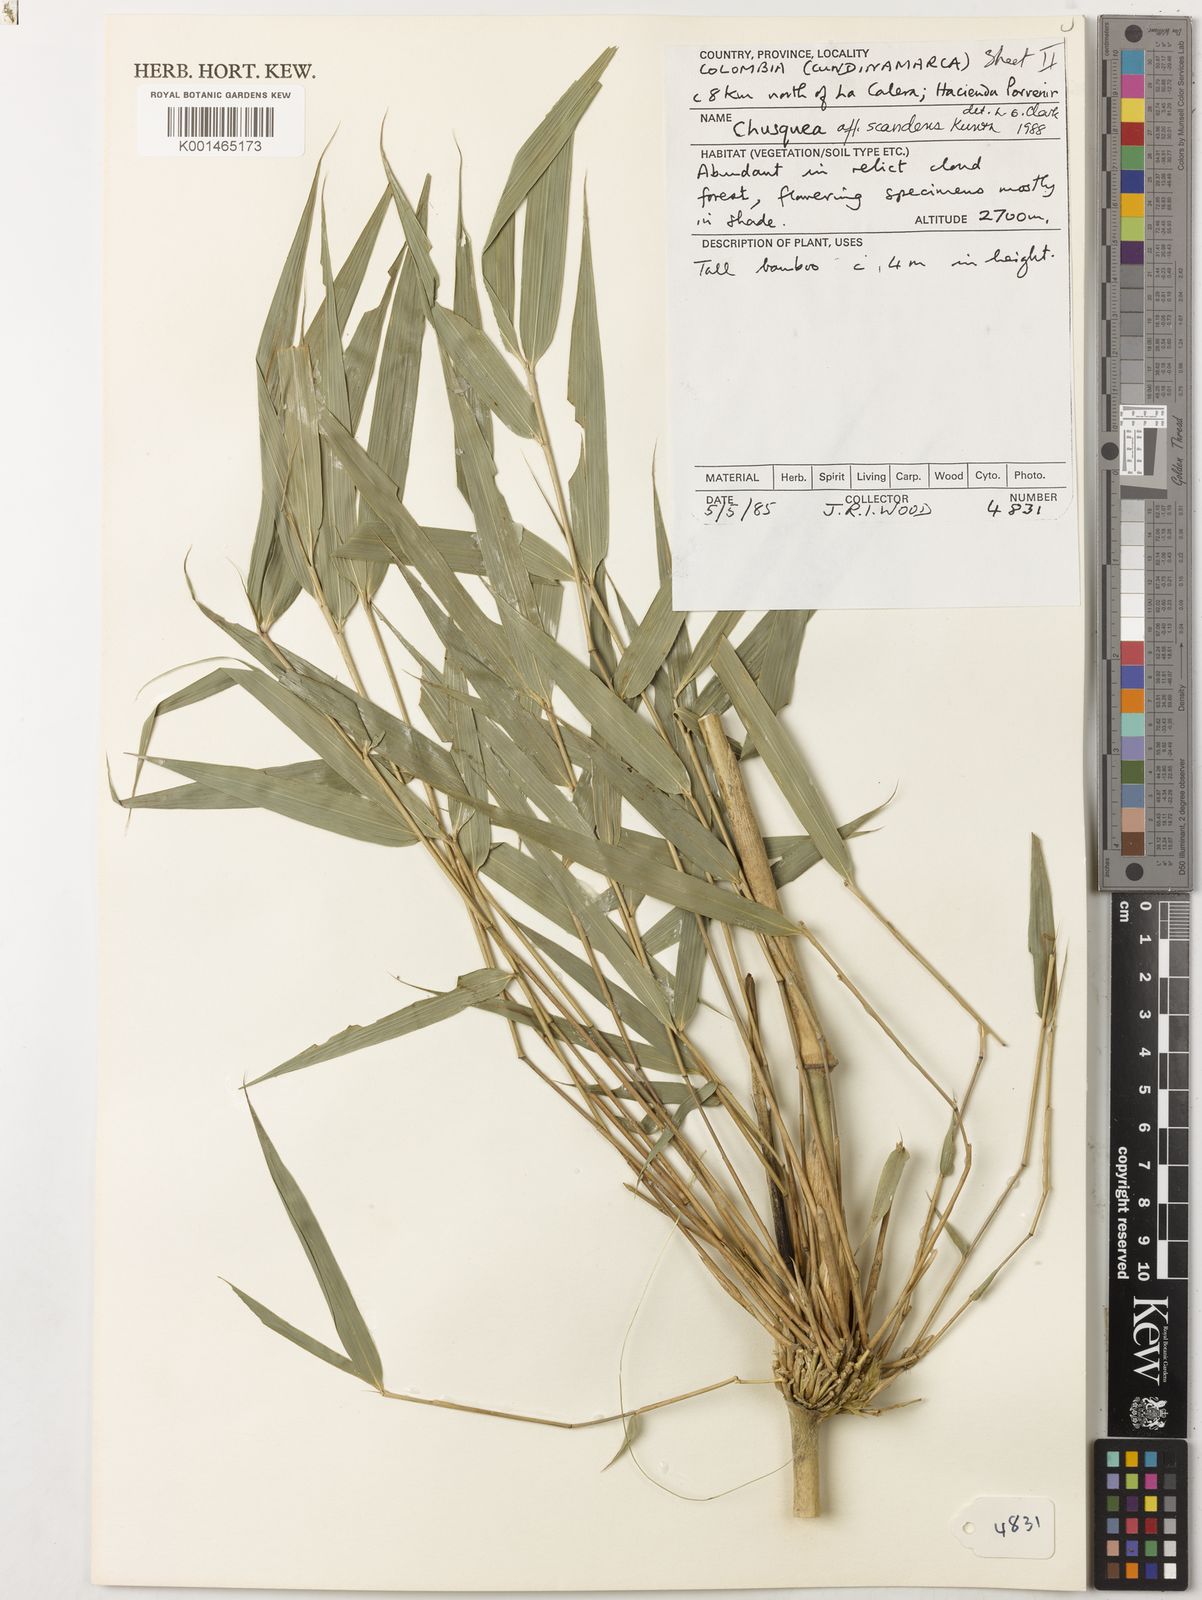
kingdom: Plantae
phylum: Tracheophyta
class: Liliopsida
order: Poales
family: Poaceae
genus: Chusquea
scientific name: Chusquea scandens
